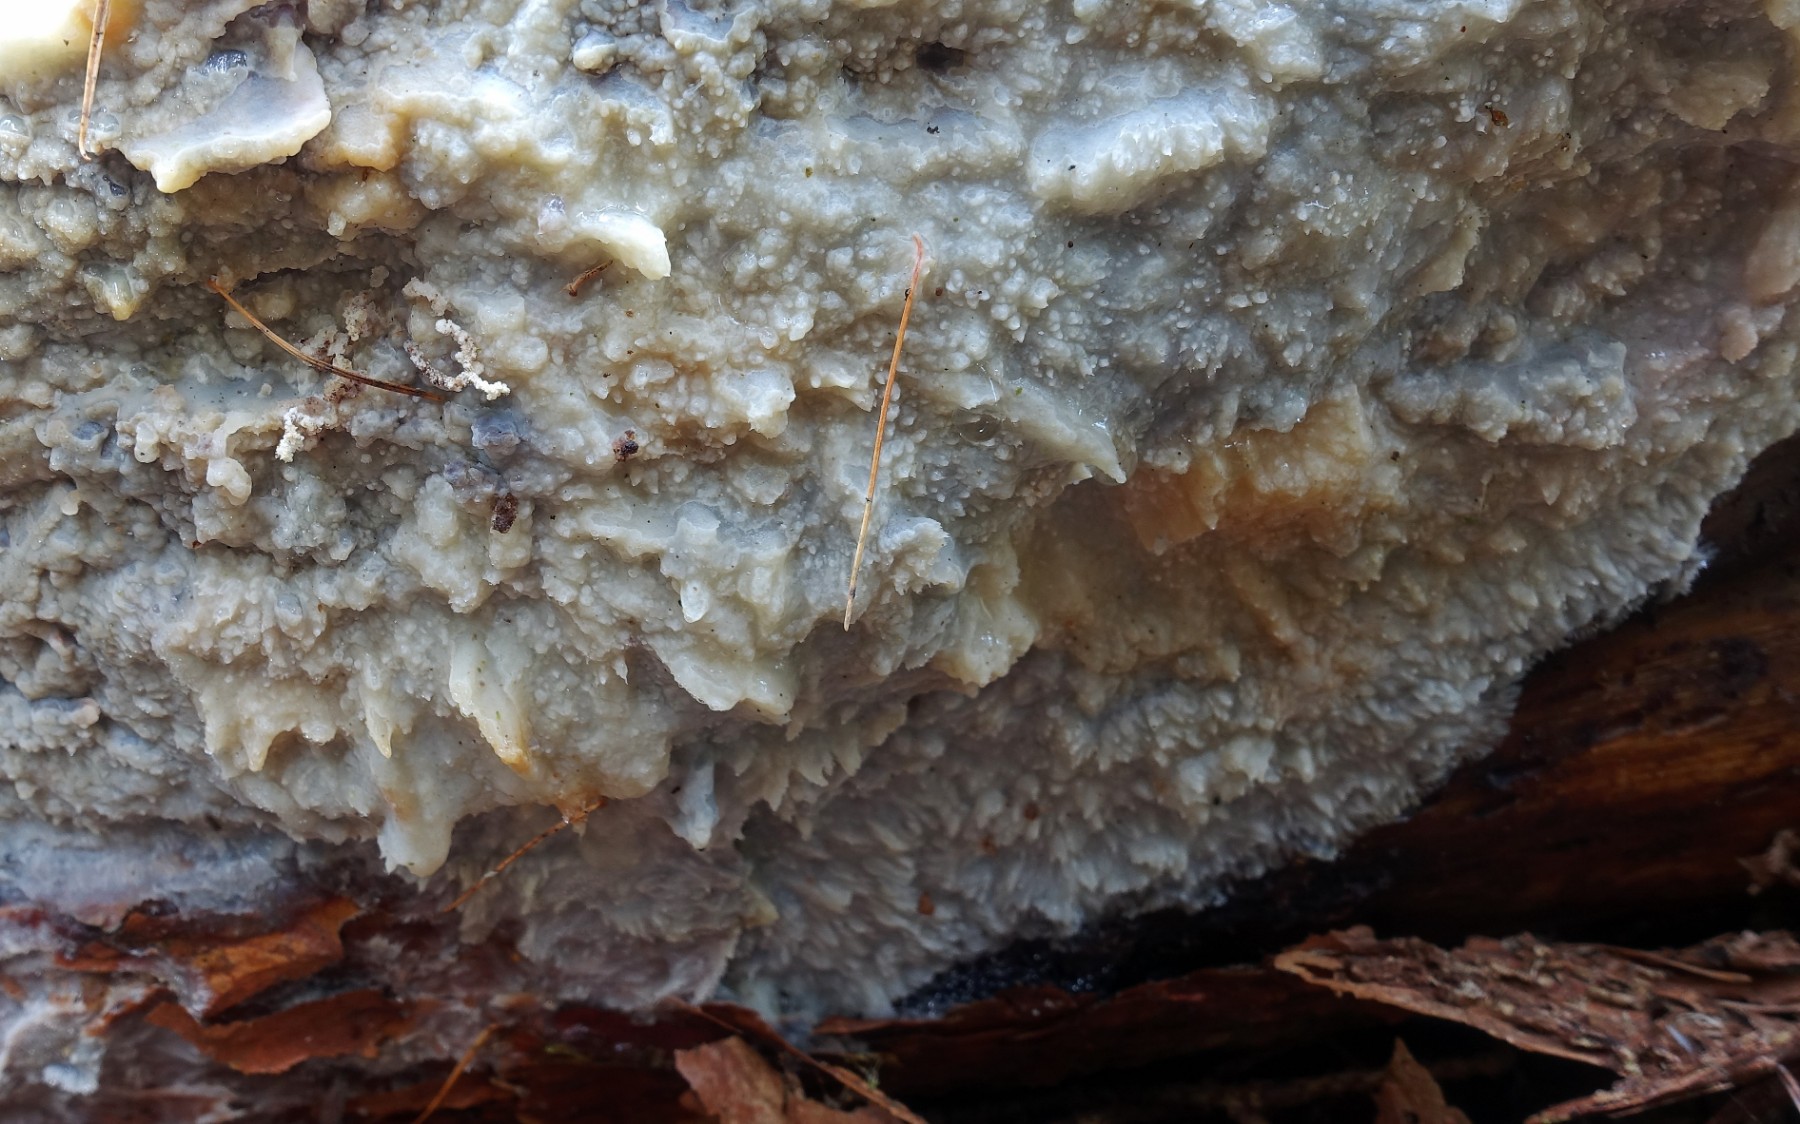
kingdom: Fungi
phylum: Basidiomycota
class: Agaricomycetes
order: Polyporales
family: Phanerochaetaceae
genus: Phlebiopsis
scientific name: Phlebiopsis gigantea
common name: kæmpebarksvamp
